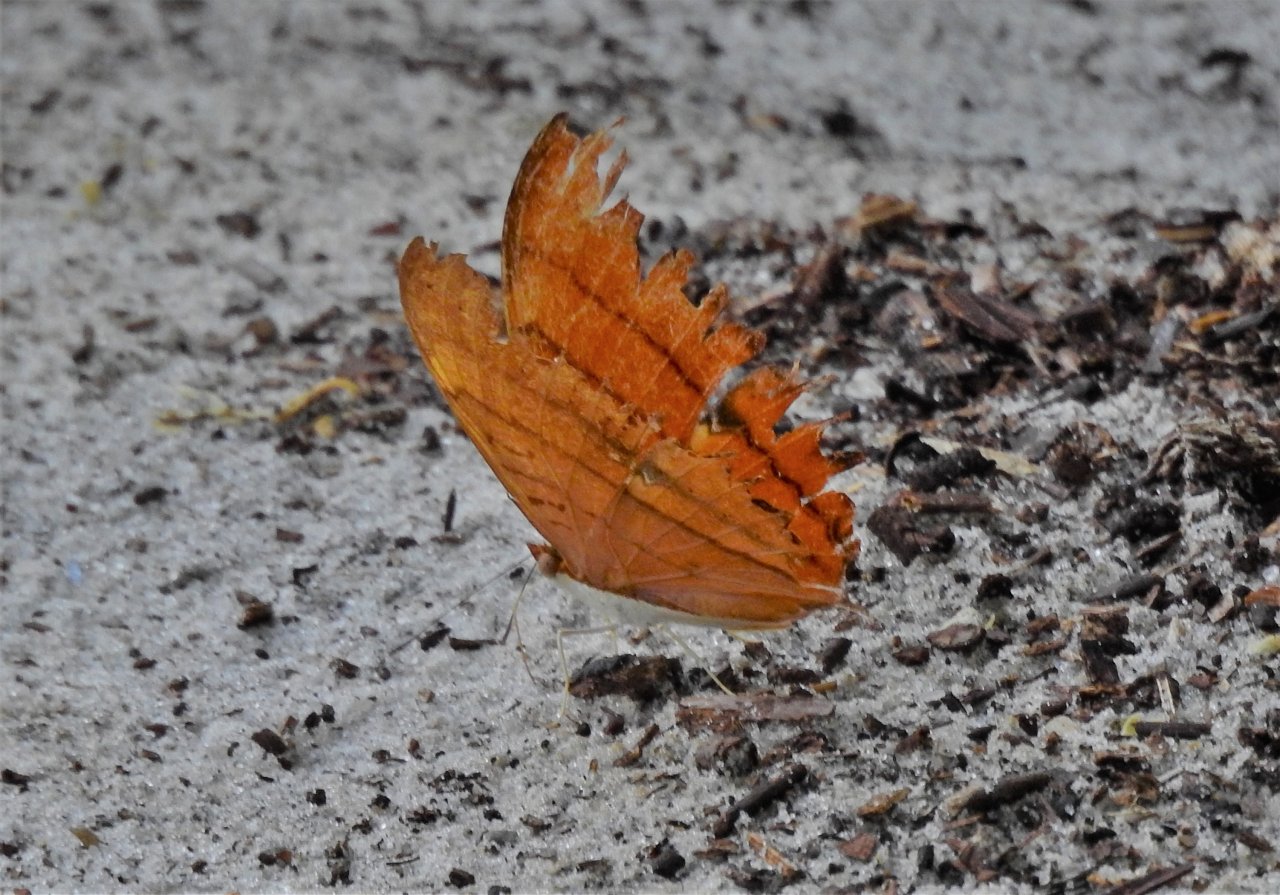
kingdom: Animalia
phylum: Arthropoda
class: Insecta
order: Lepidoptera
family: Nymphalidae
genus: Marpesia
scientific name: Marpesia petreus
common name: Ruddy Daggerwing
